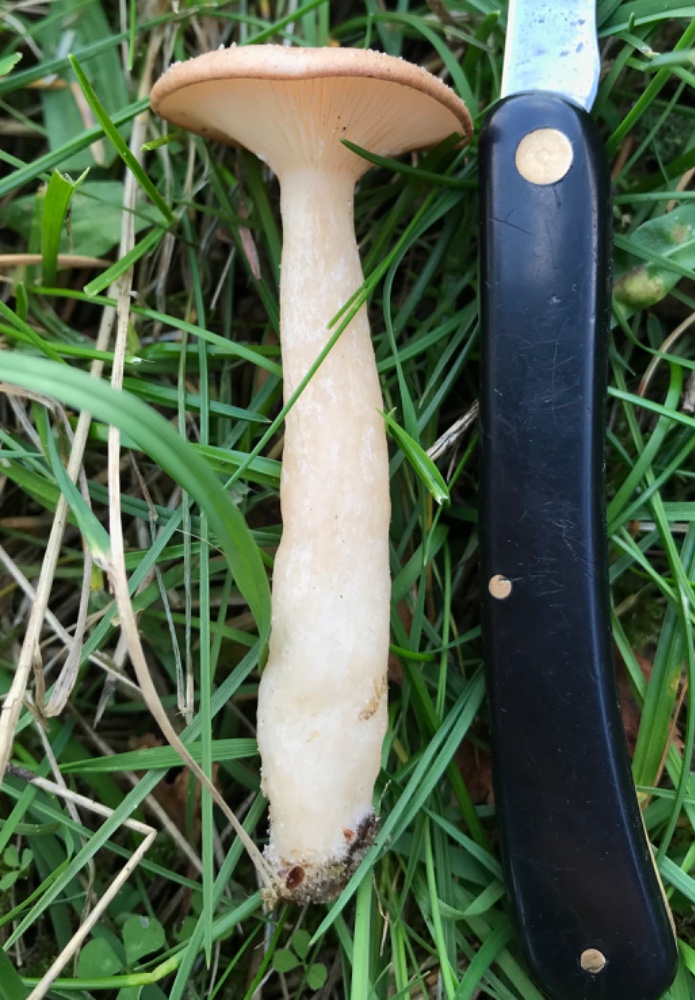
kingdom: Fungi
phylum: Basidiomycota
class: Agaricomycetes
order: Russulales
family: Russulaceae
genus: Lactarius
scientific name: Lactarius
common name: mælkehat
